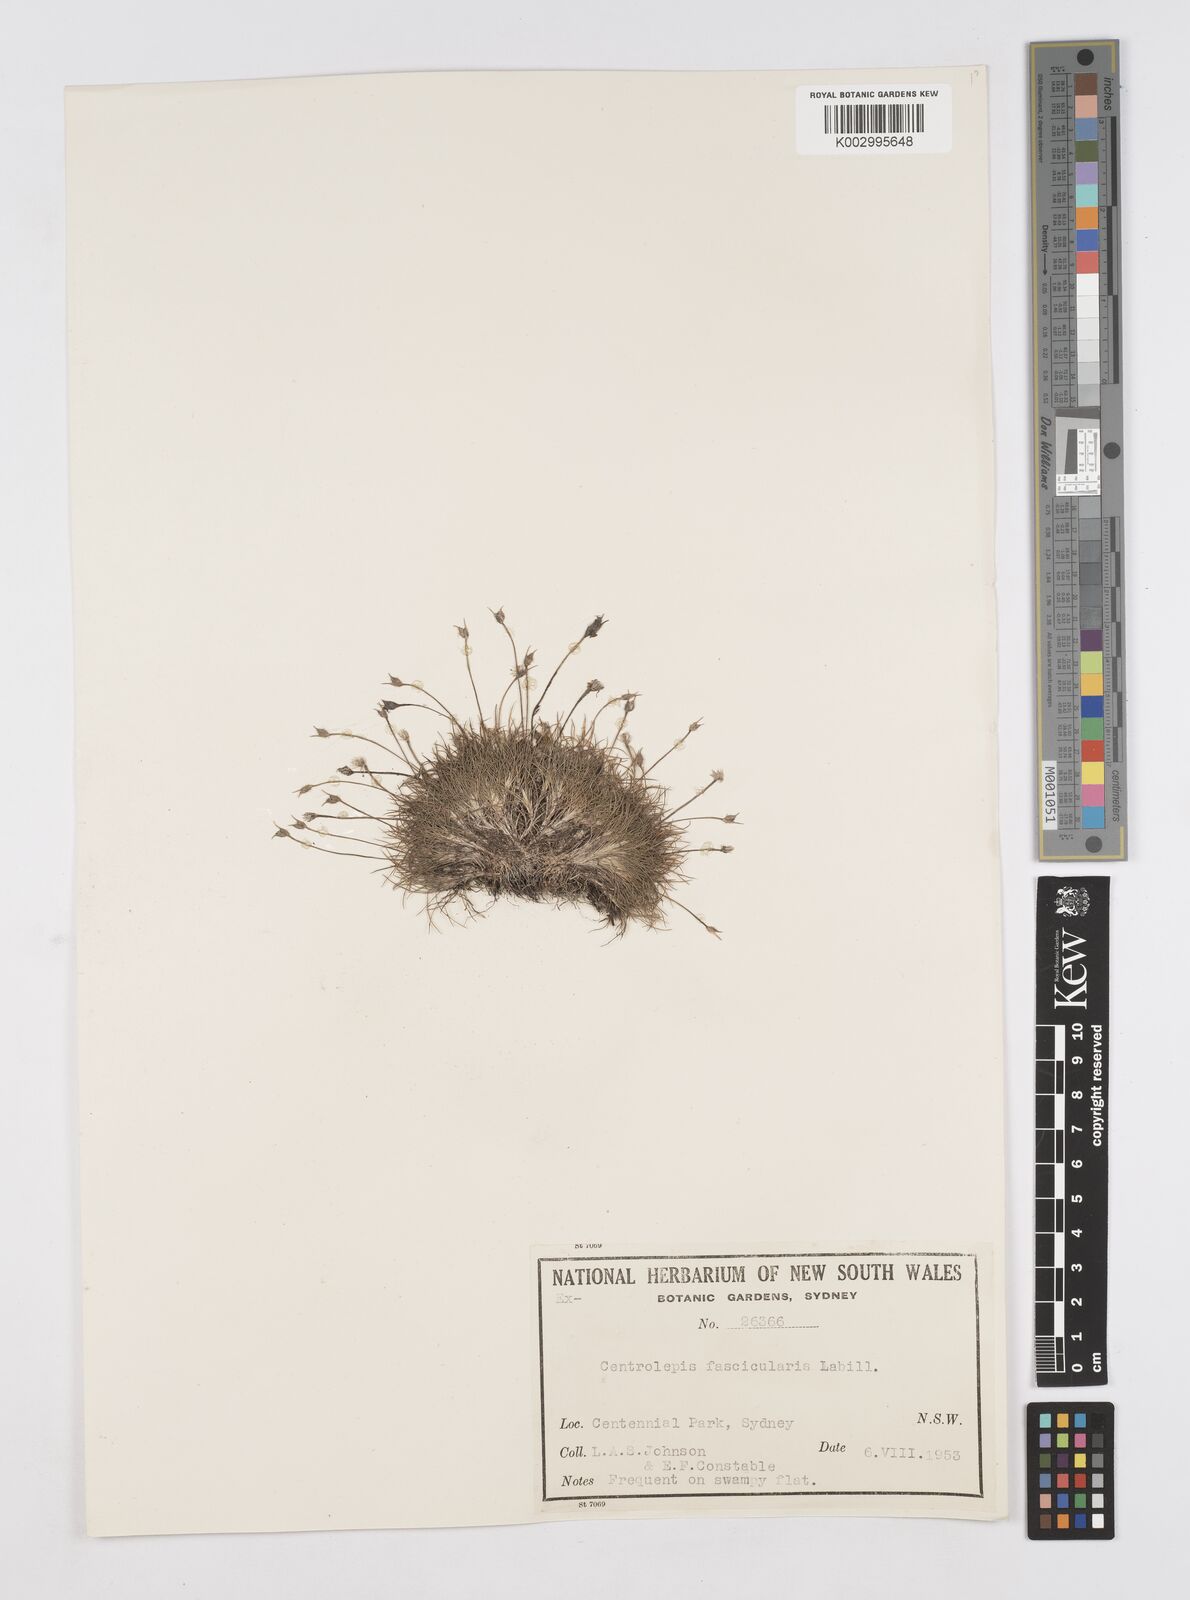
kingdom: Plantae
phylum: Tracheophyta
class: Liliopsida
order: Poales
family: Restionaceae
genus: Centrolepis
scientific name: Centrolepis fascicularis
